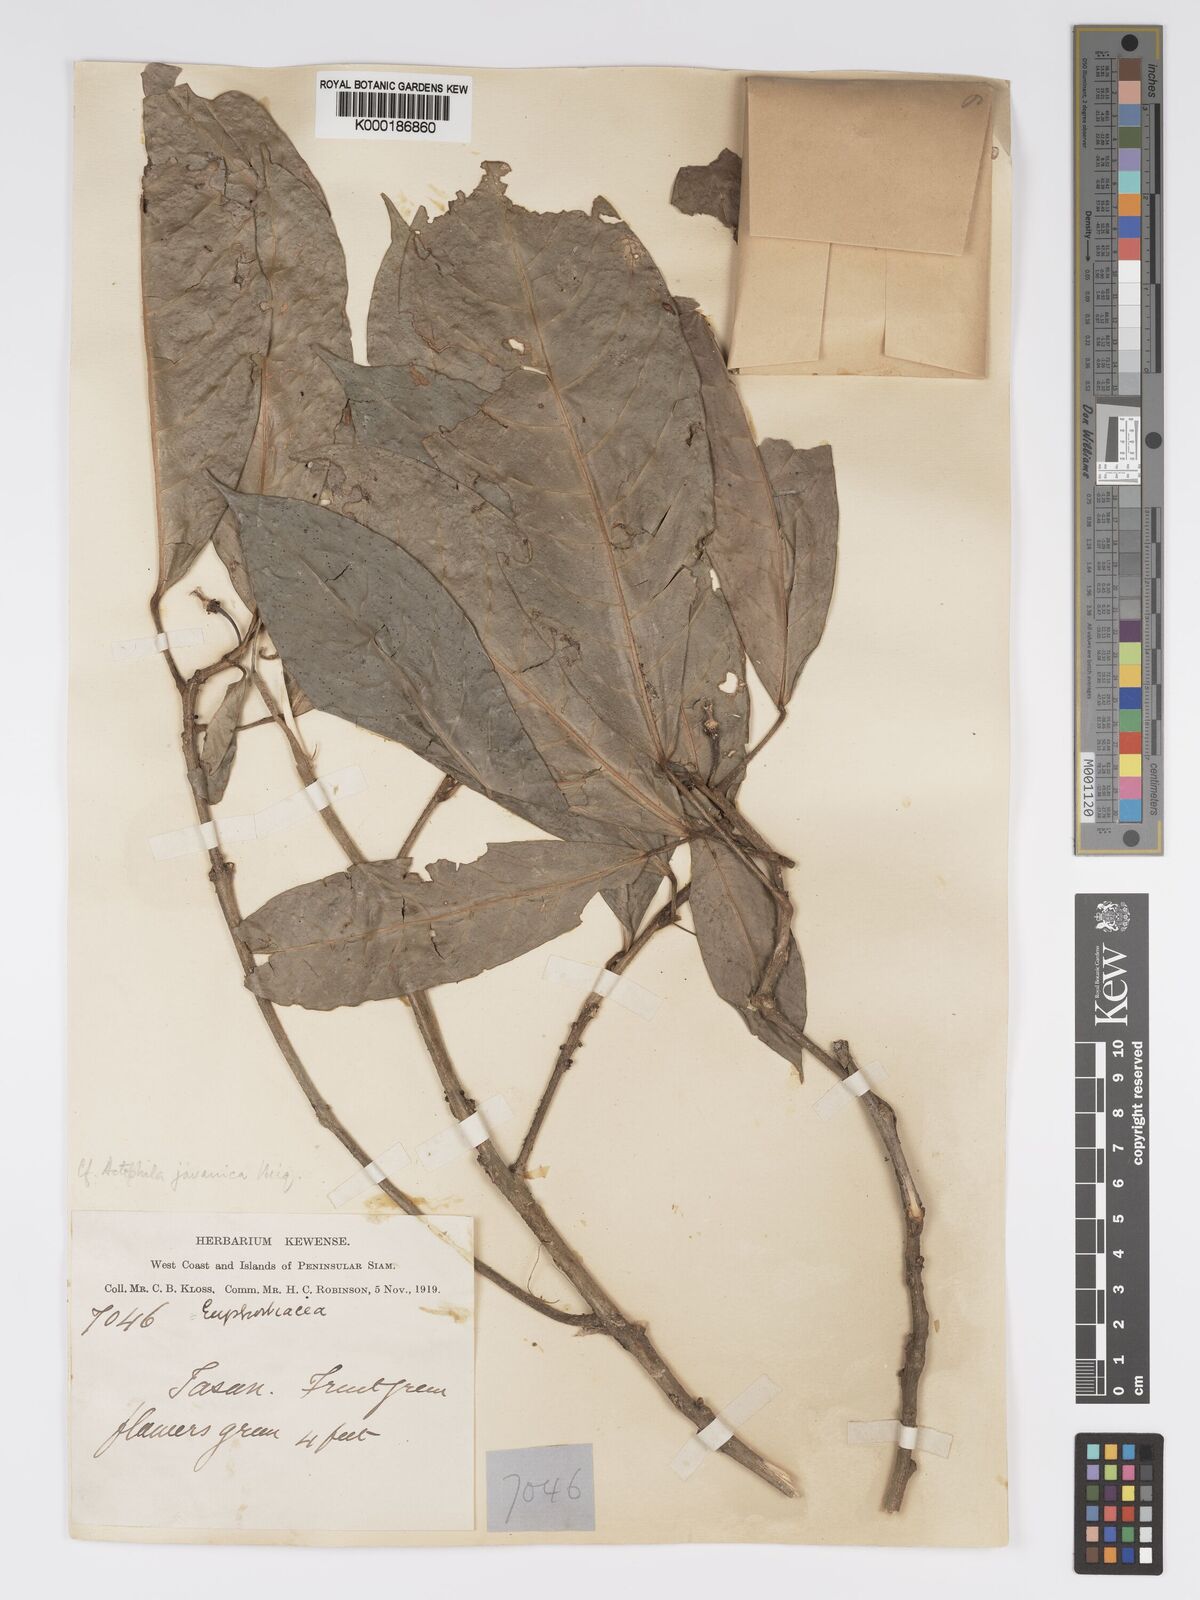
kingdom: Plantae
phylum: Tracheophyta
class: Magnoliopsida
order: Malpighiales
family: Phyllanthaceae
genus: Actephila
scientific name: Actephila
